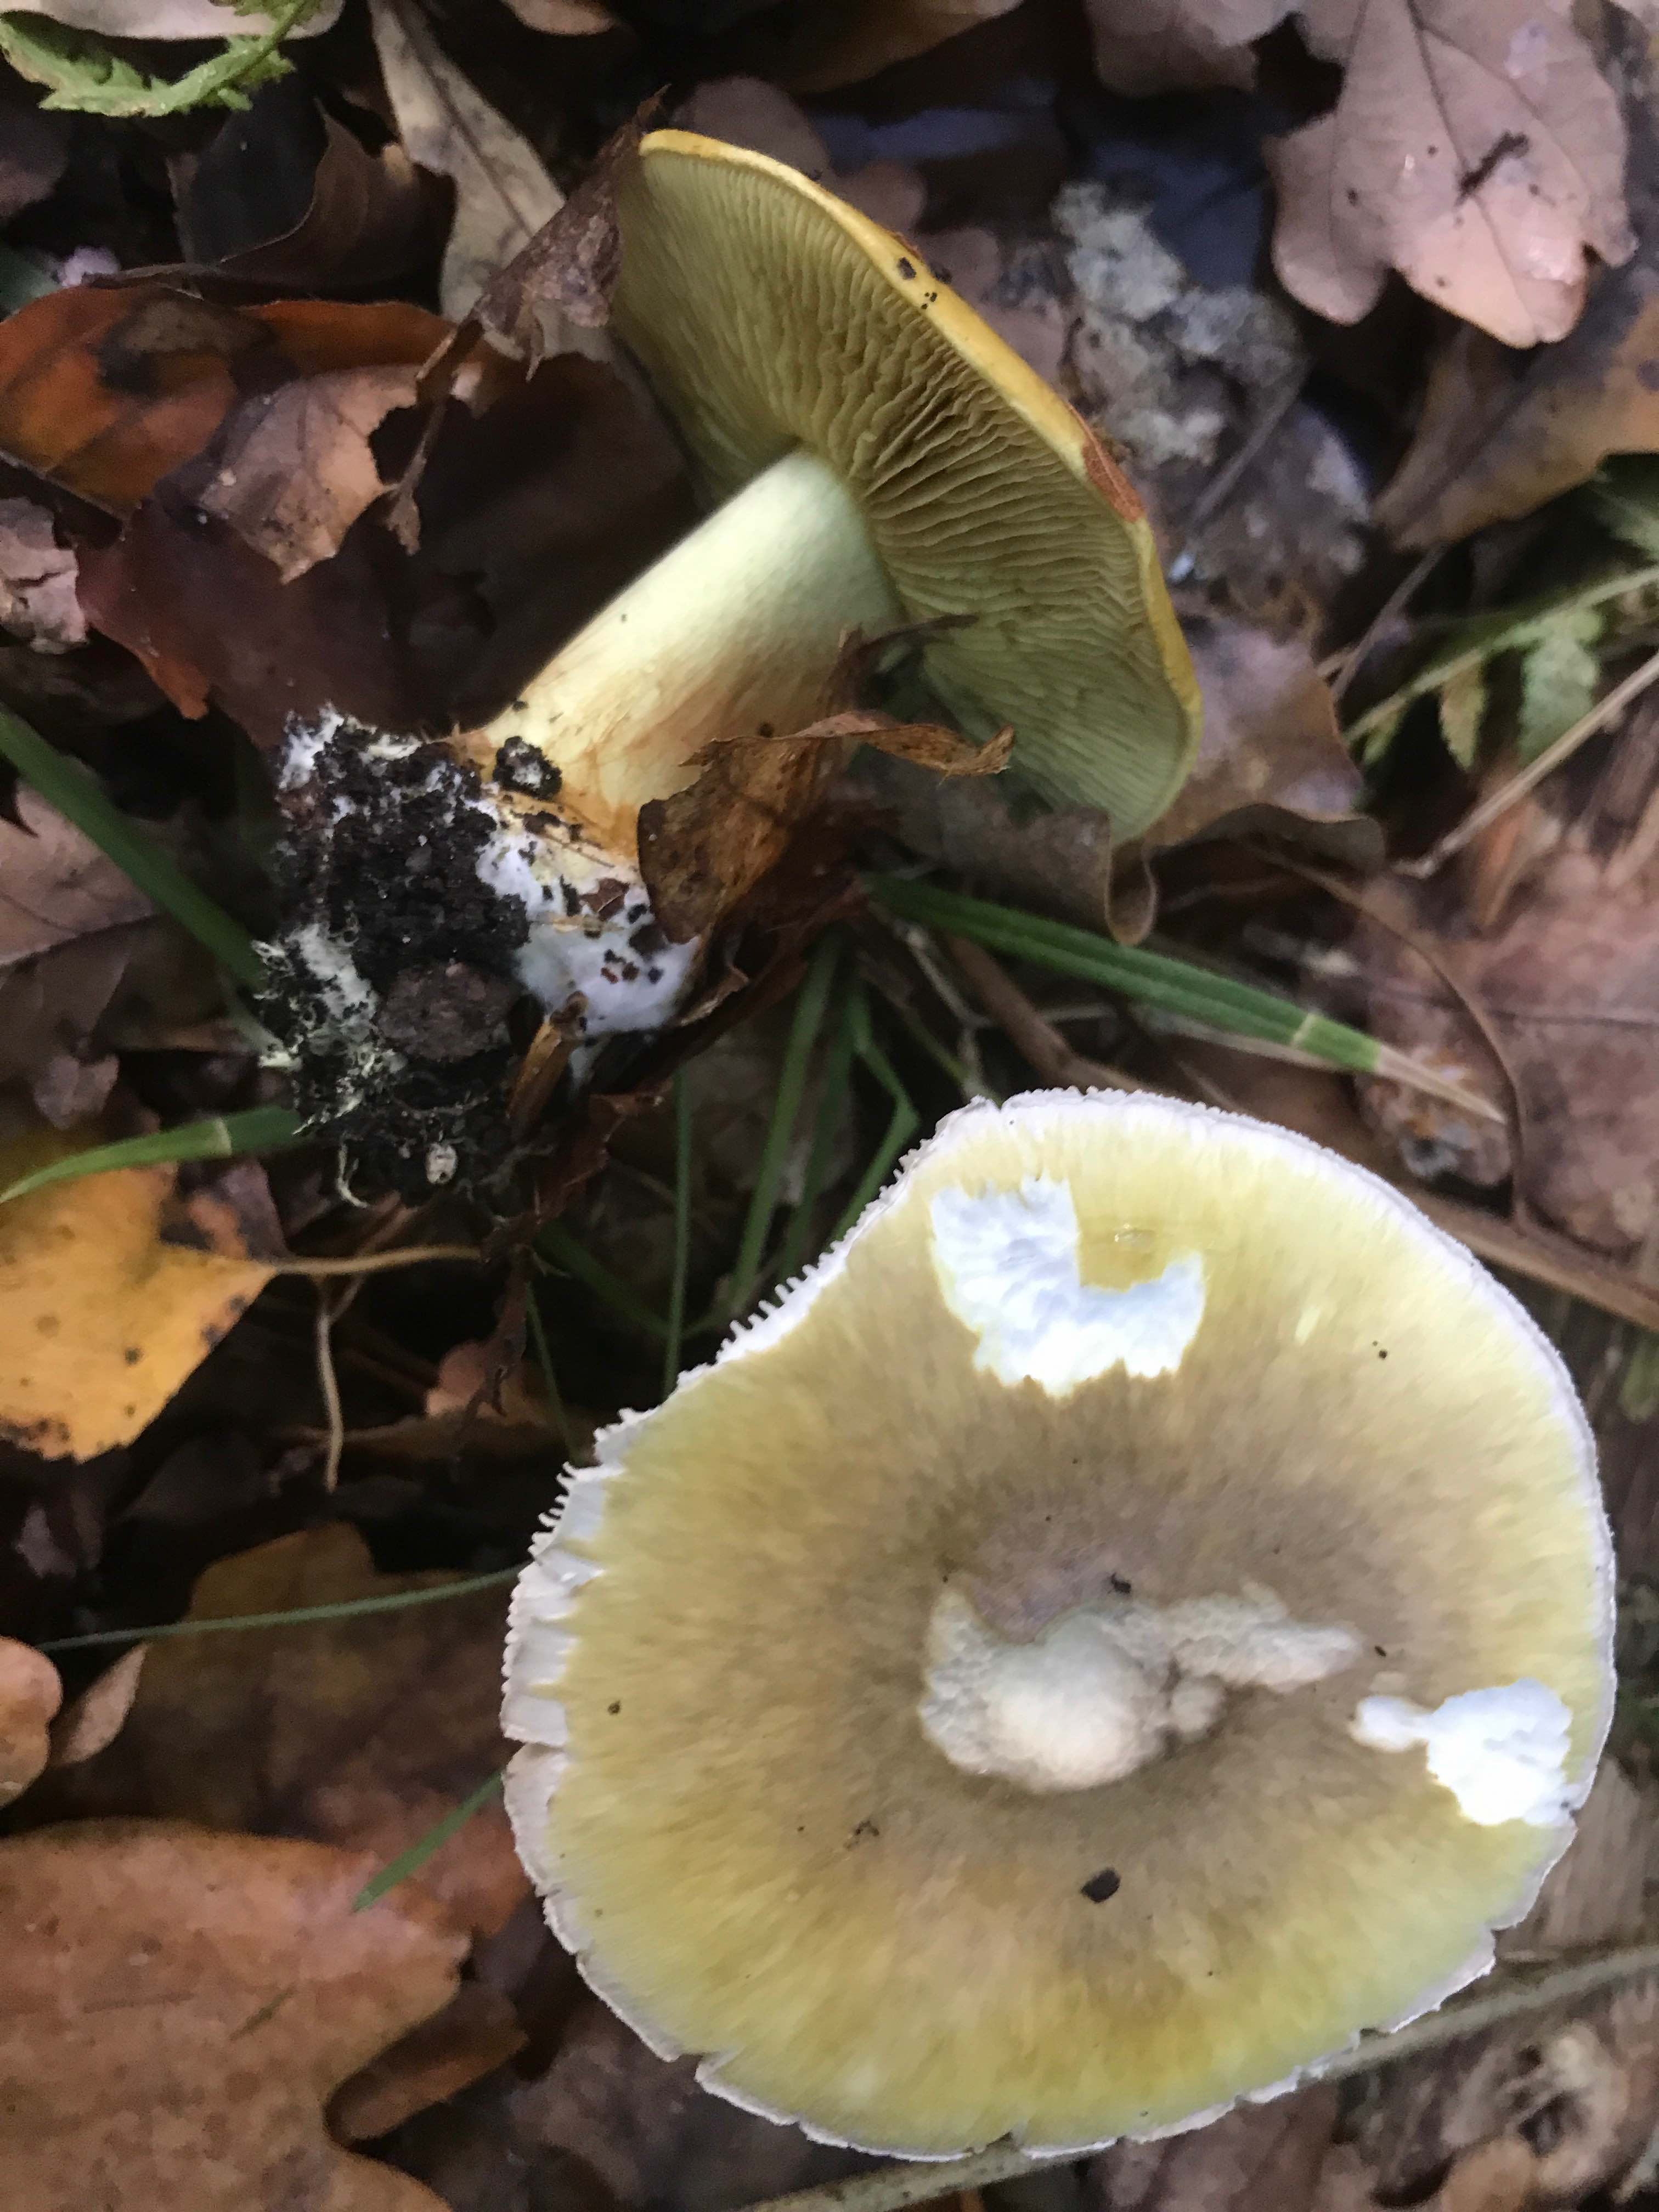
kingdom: Fungi
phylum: Basidiomycota
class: Agaricomycetes
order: Agaricales
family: Amanitaceae
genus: Amanita
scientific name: Amanita phalloides
